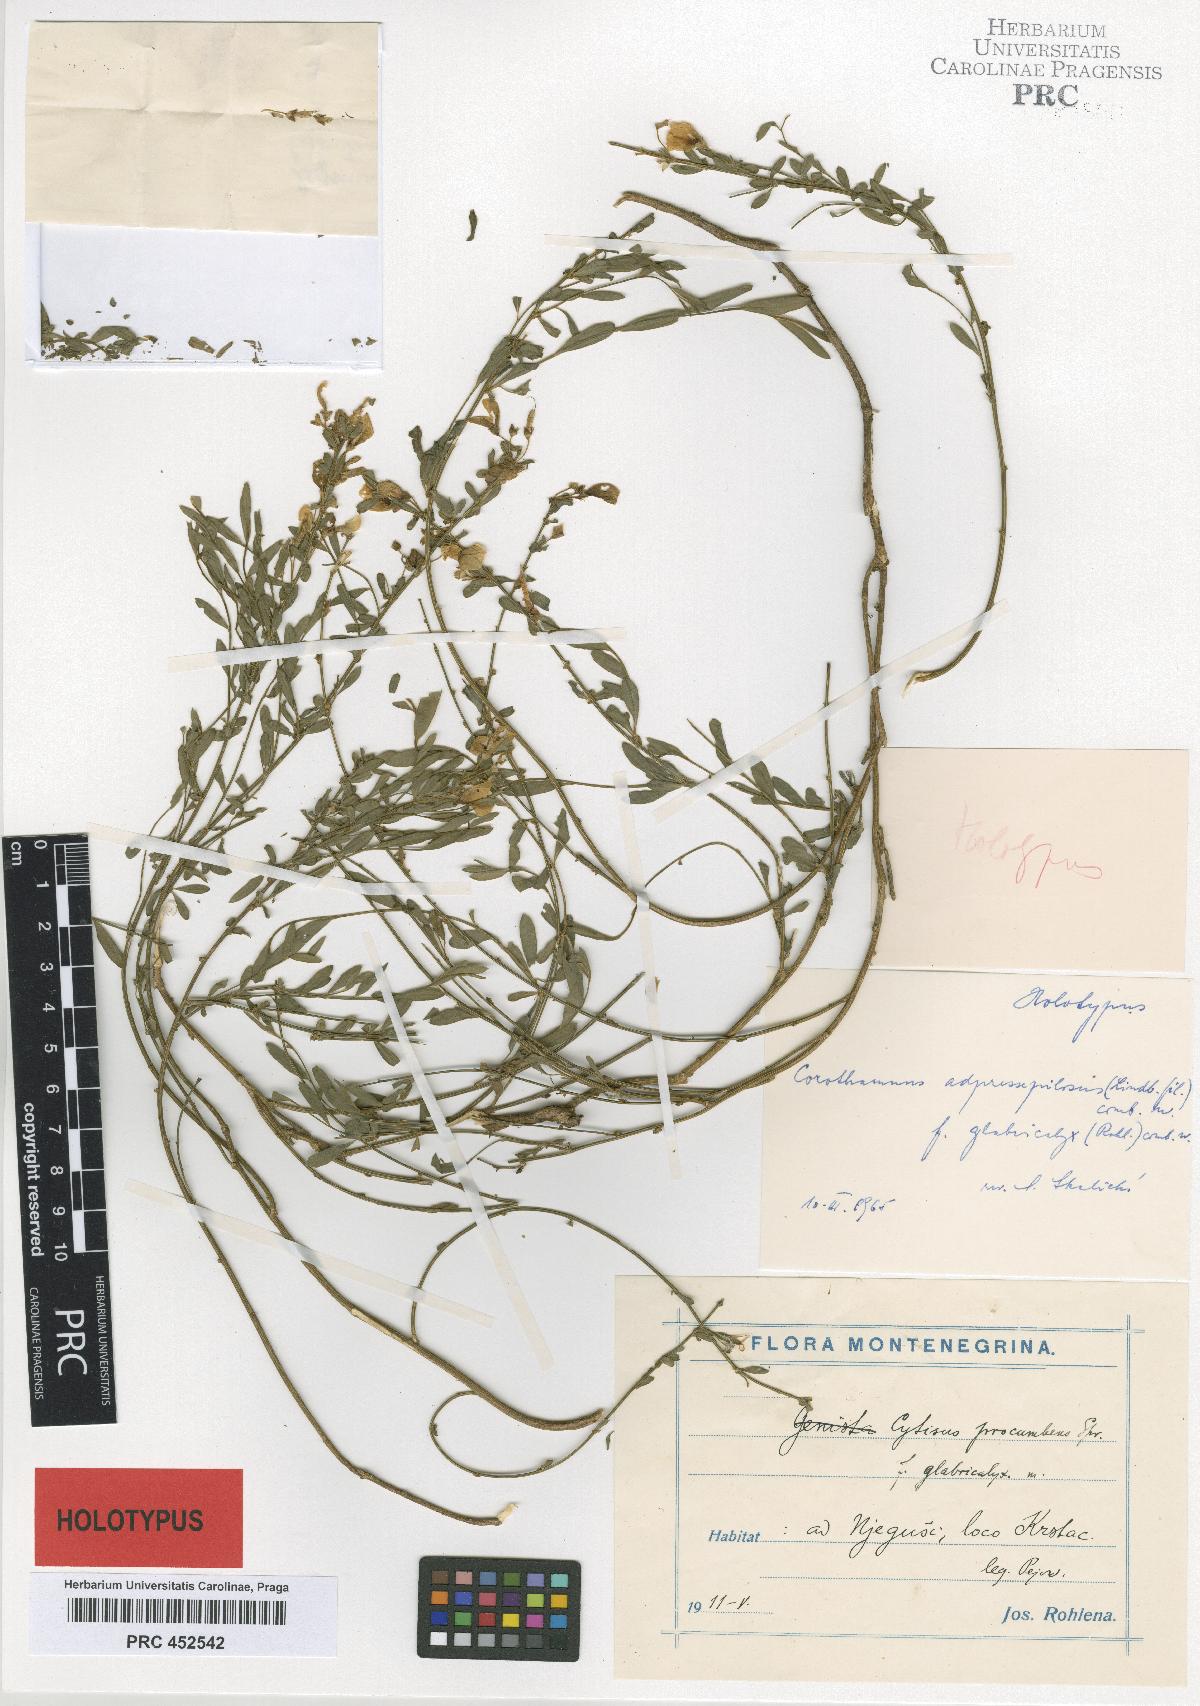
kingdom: Plantae
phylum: Tracheophyta
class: Magnoliopsida
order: Fabales
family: Fabaceae
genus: Cytisus
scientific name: Cytisus decumbens
